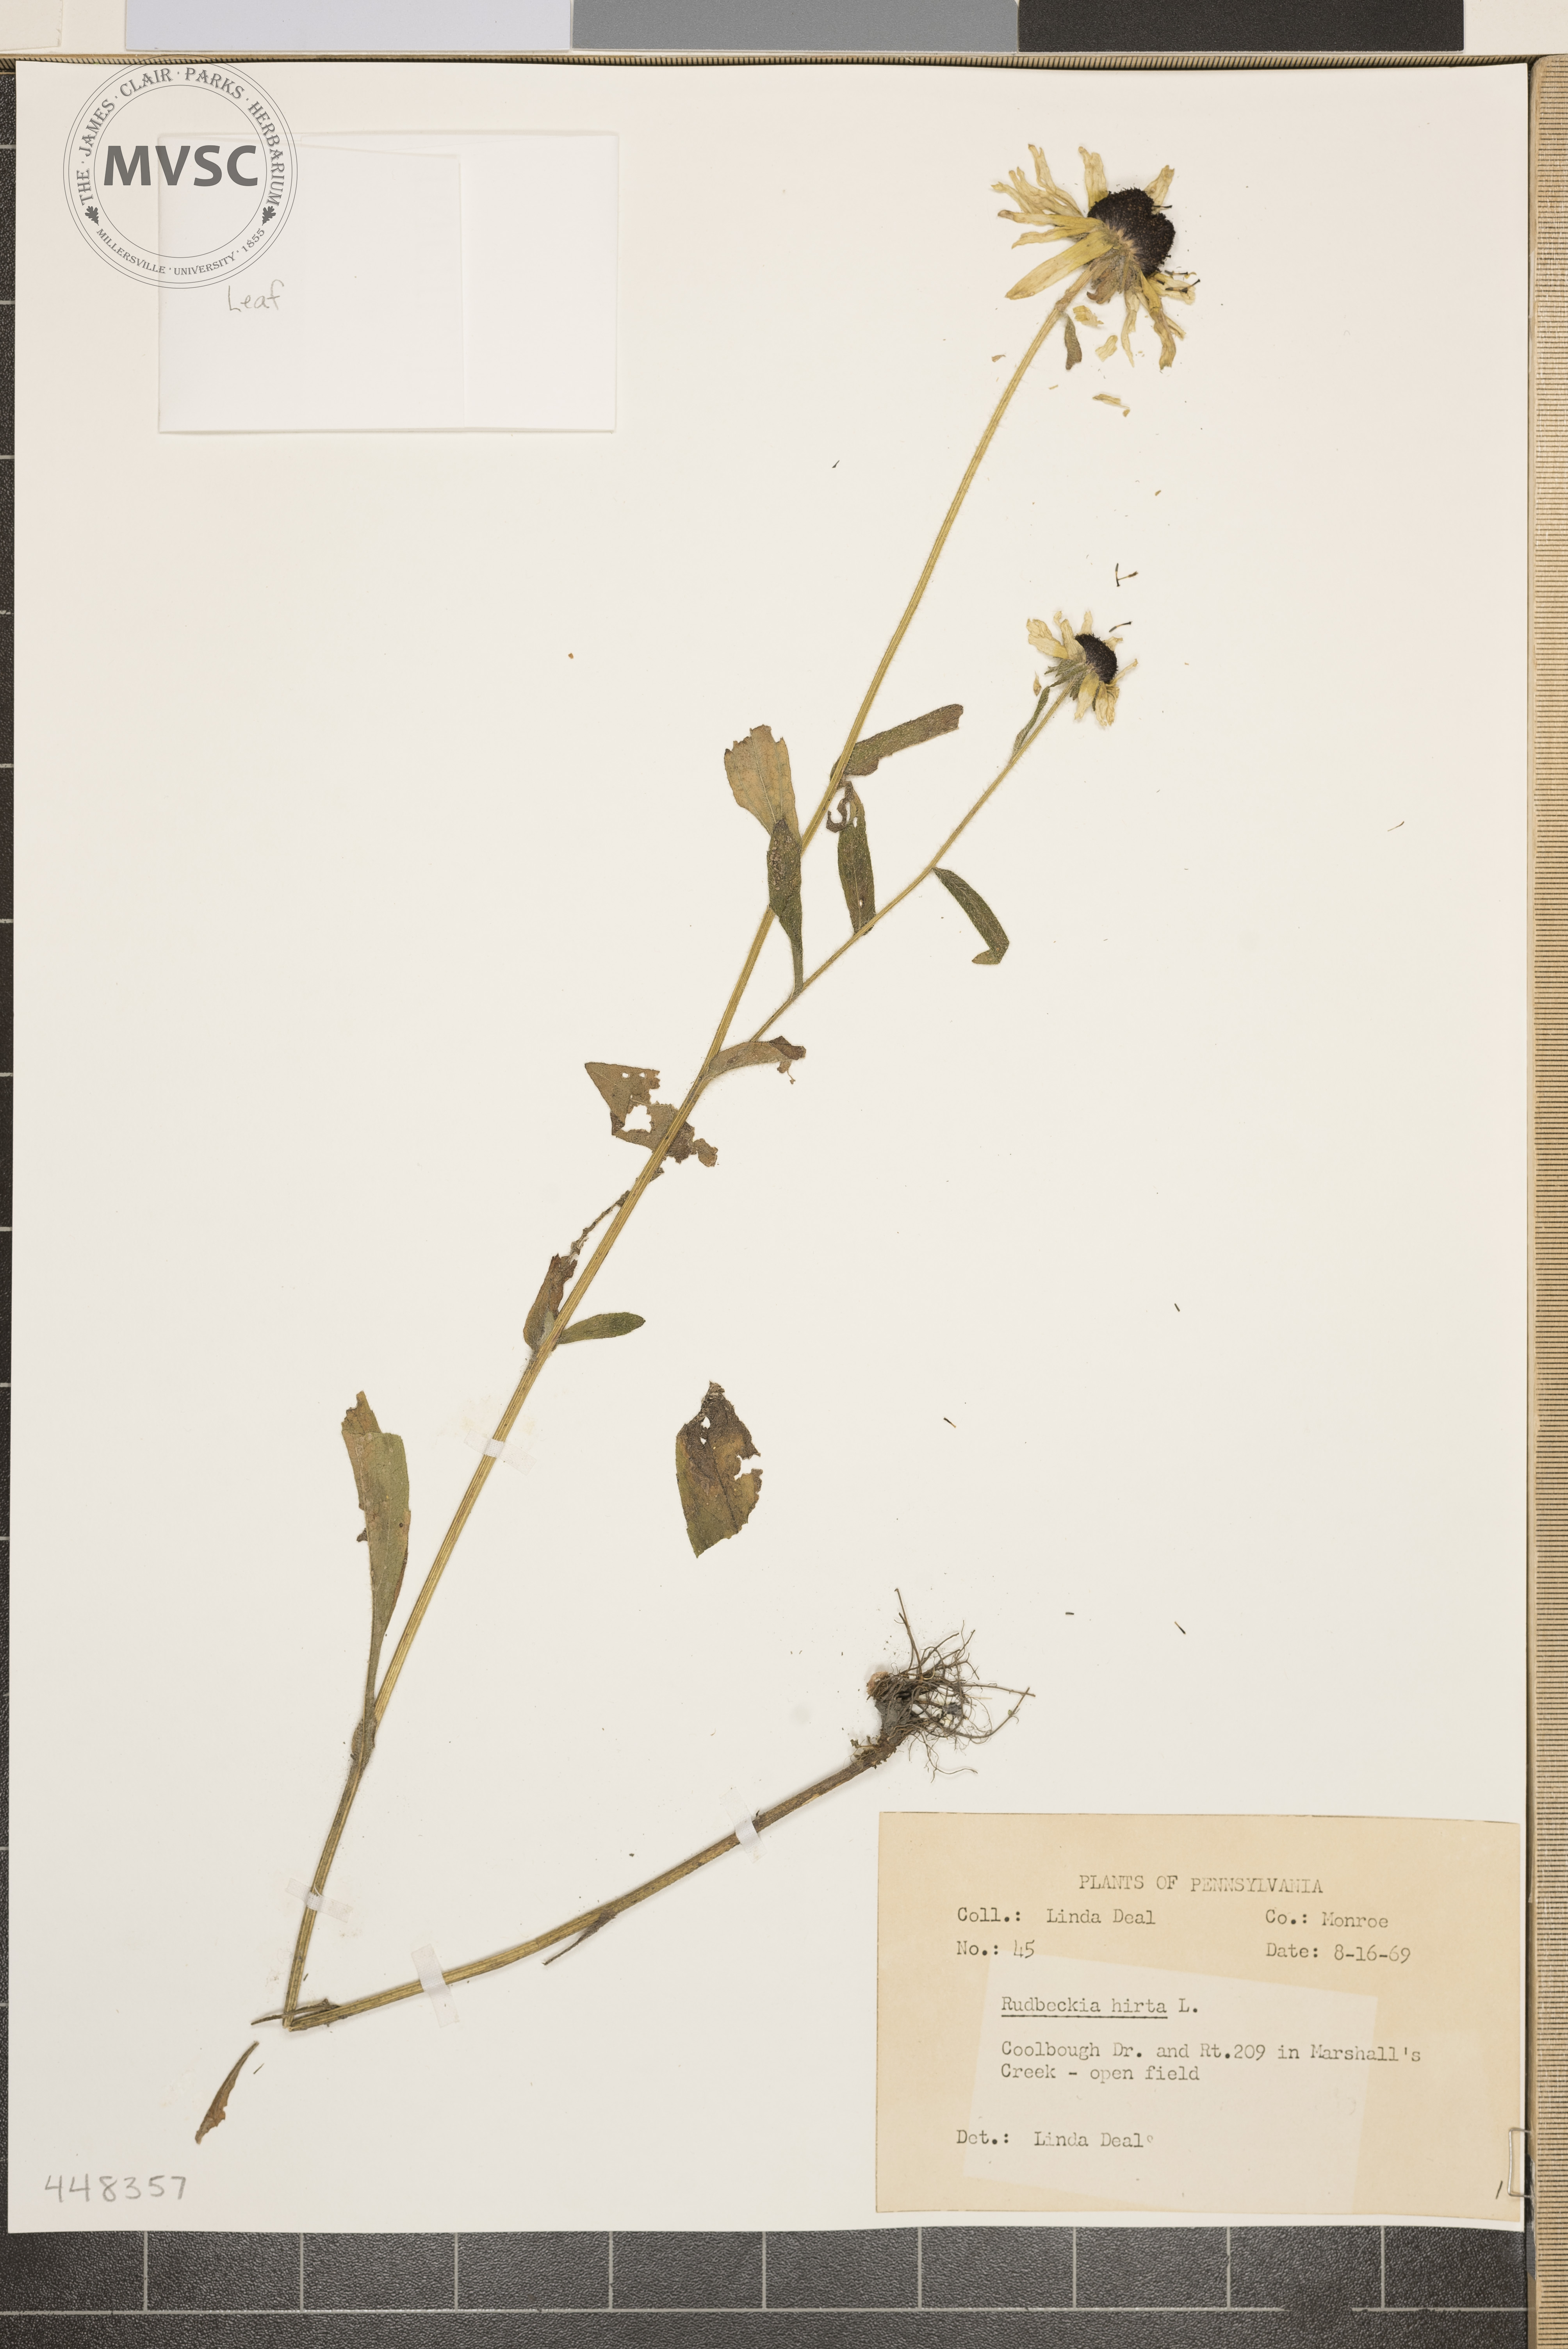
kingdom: Plantae
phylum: Tracheophyta
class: Magnoliopsida
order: Asterales
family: Asteraceae
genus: Rudbeckia
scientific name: Rudbeckia hirta
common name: Black-eyed-susan
